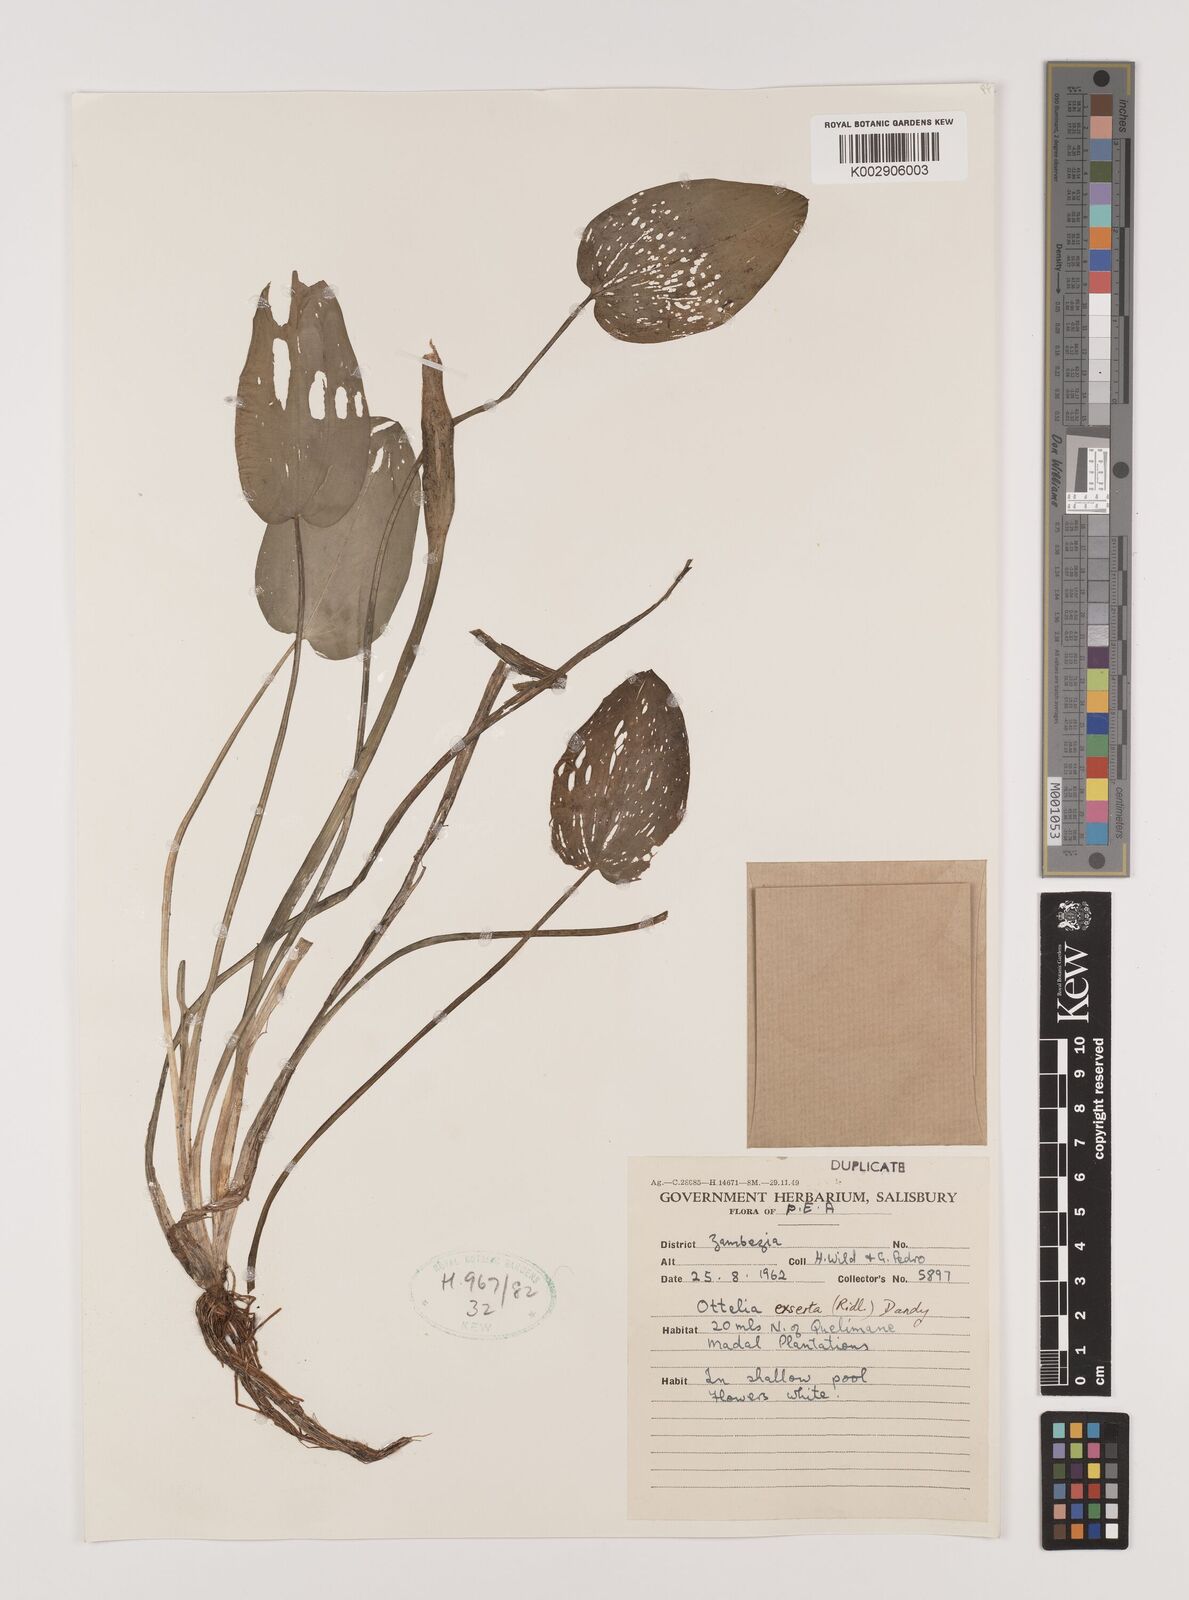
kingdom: Plantae
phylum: Tracheophyta
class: Liliopsida
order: Alismatales
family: Hydrocharitaceae
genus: Ottelia
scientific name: Ottelia exserta
